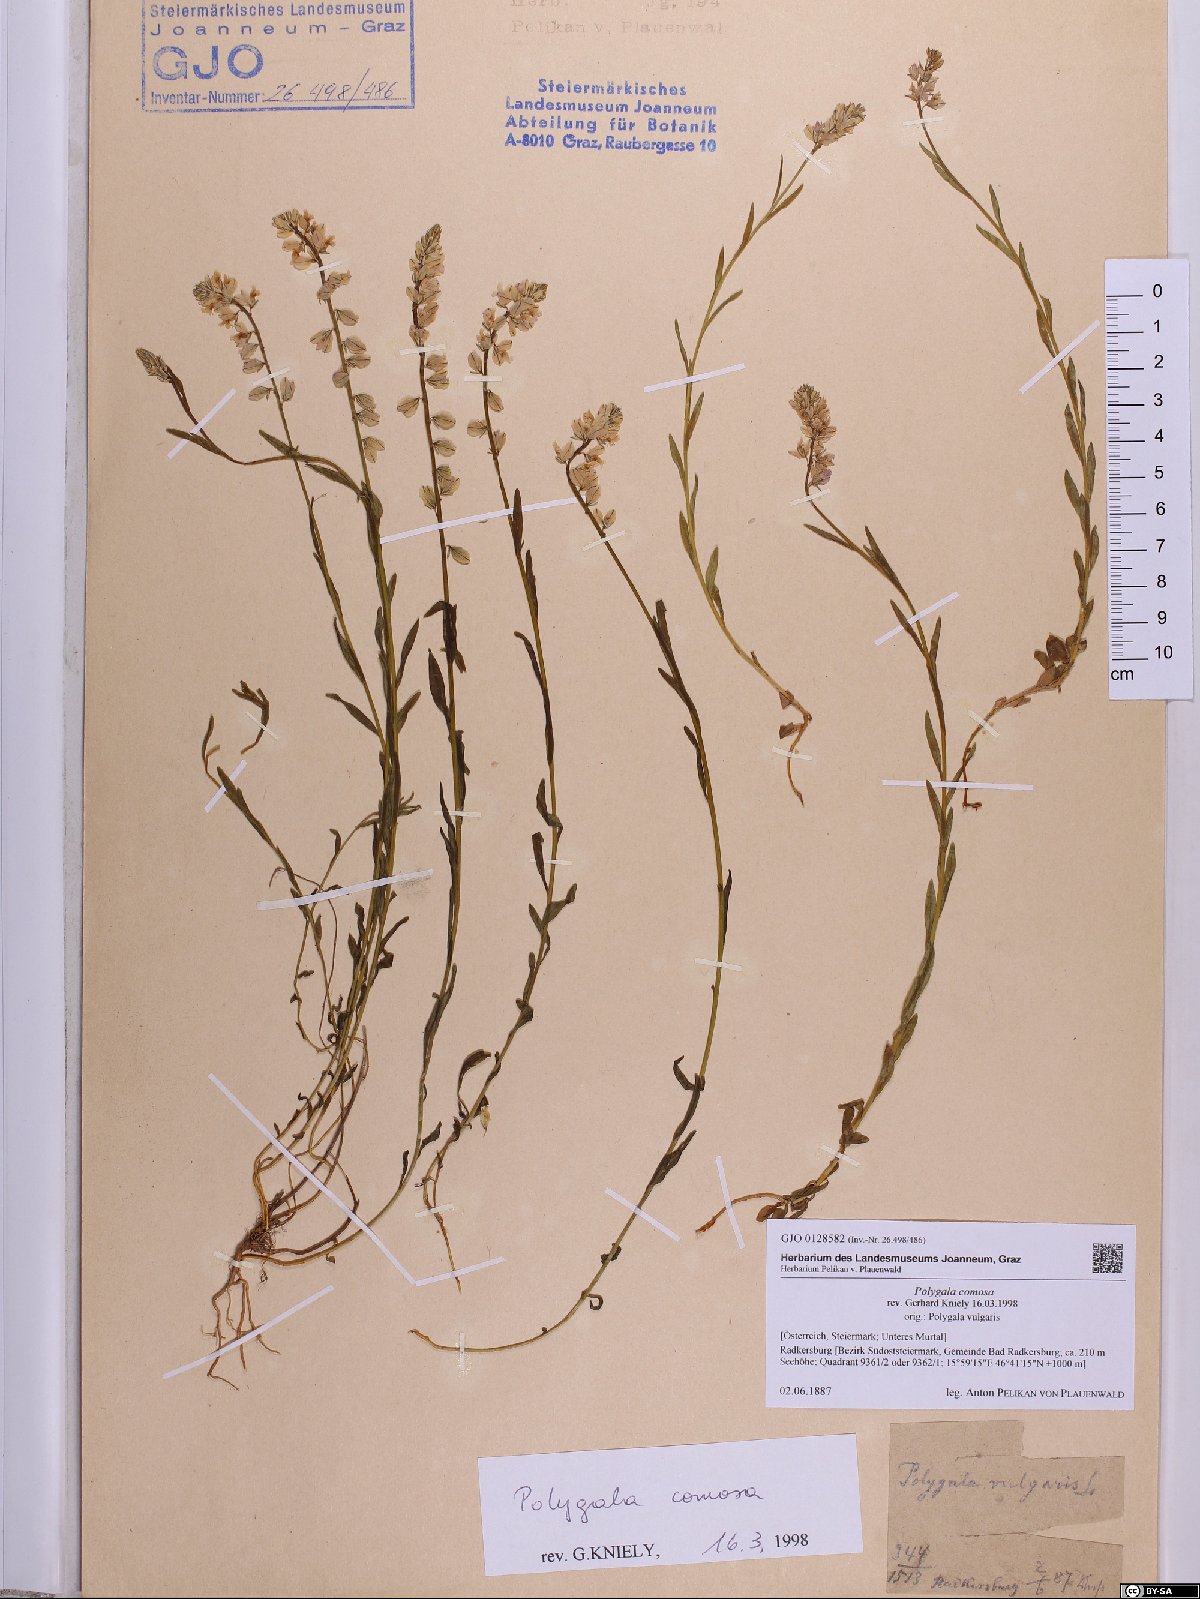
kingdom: Plantae
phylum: Tracheophyta
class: Magnoliopsida
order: Fabales
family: Polygalaceae
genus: Polygala
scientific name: Polygala comosa
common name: Tufted milkwort
